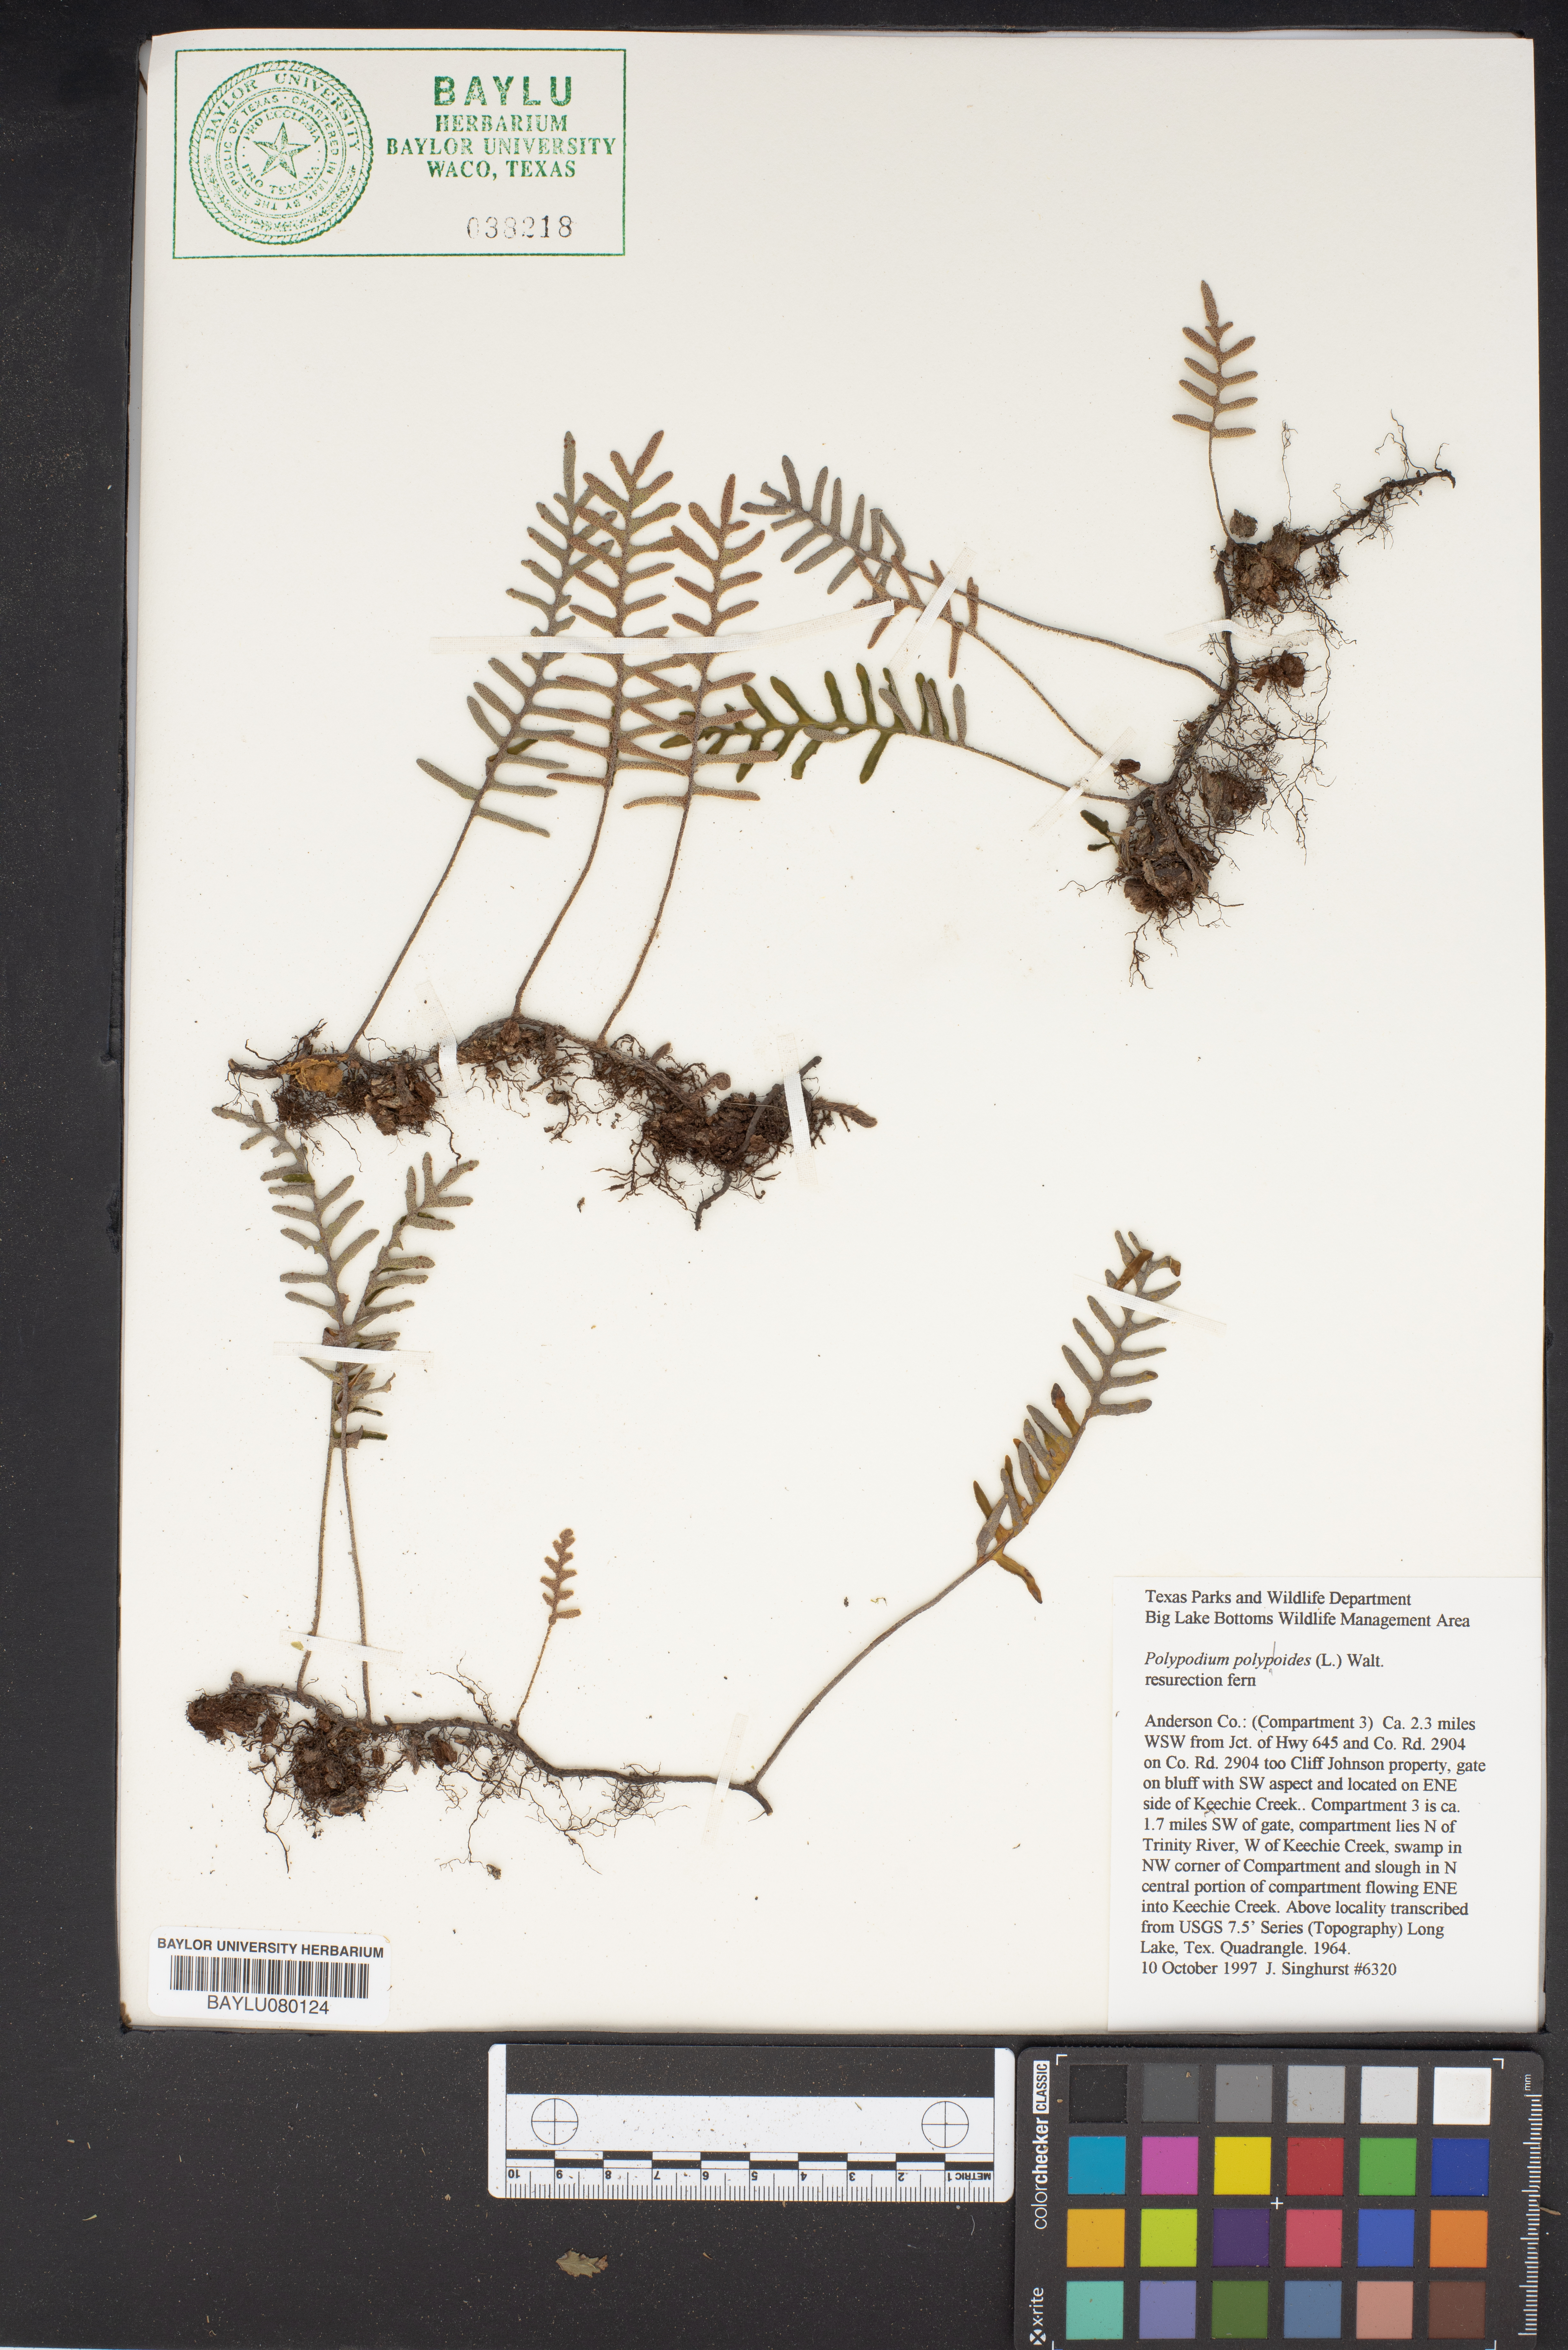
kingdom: Plantae
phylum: Tracheophyta
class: Polypodiopsida
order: Polypodiales
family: Polypodiaceae
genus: Pleopeltis
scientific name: Pleopeltis polypodioides
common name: Resurrection fern
